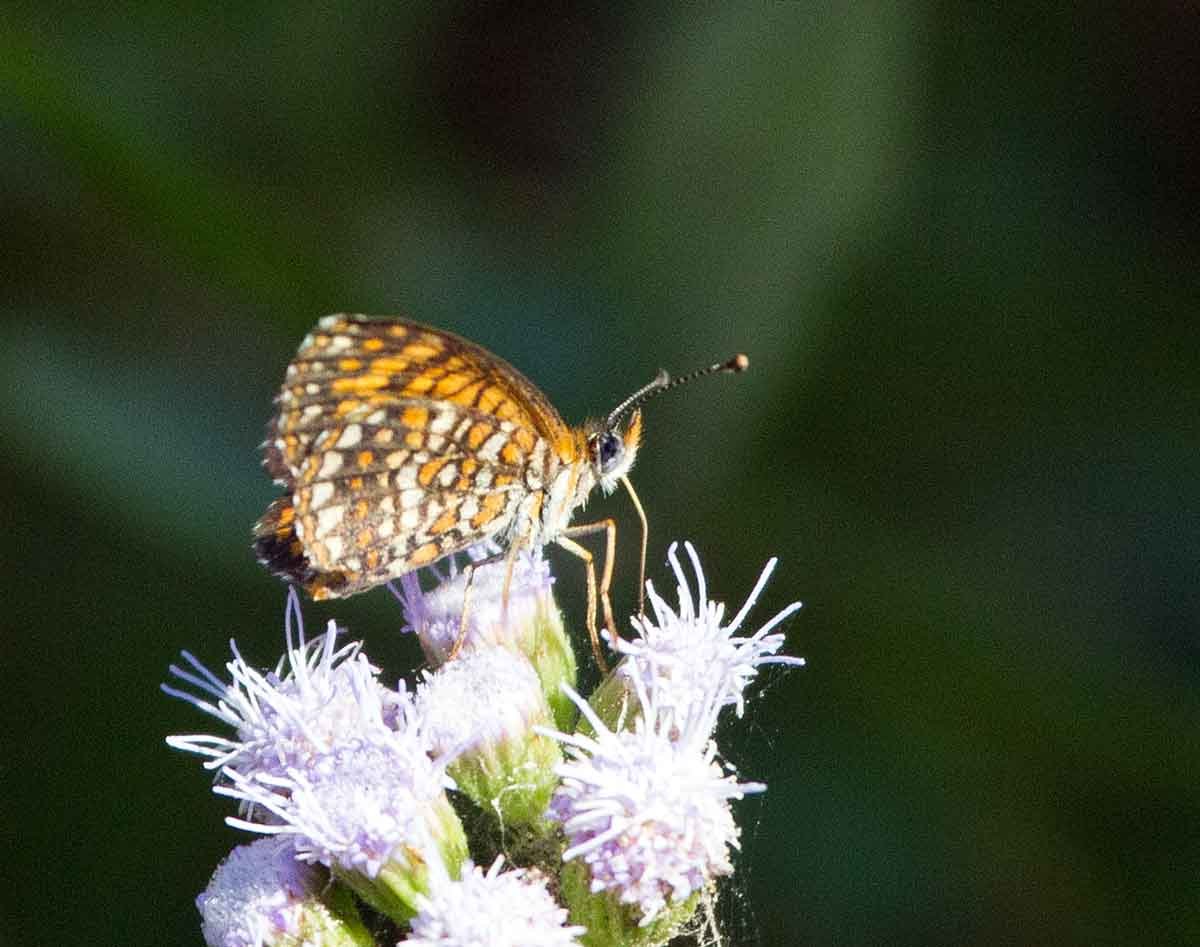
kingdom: Animalia
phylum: Arthropoda
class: Insecta
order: Lepidoptera
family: Nymphalidae
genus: Texola
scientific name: Texola elada
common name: Elada Checkerspot
